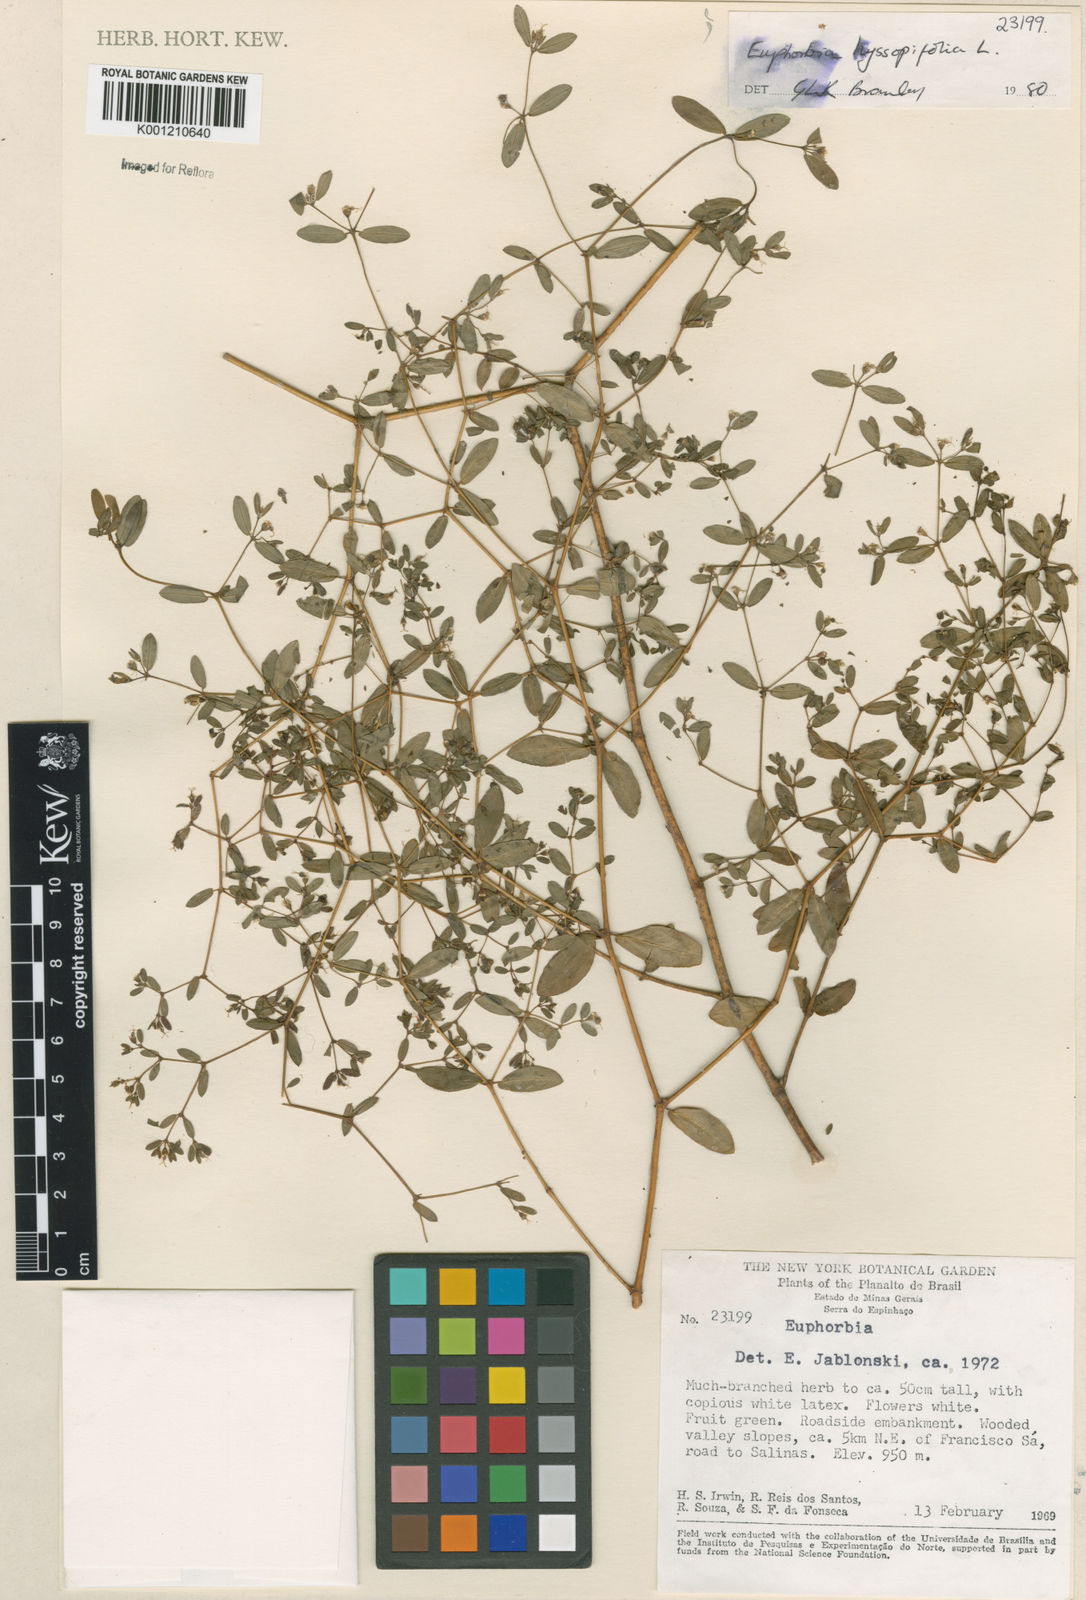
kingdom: Plantae
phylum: Tracheophyta
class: Magnoliopsida
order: Malpighiales
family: Euphorbiaceae
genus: Euphorbia
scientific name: Euphorbia hyssopifolia
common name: Hyssopleaf sandmat
